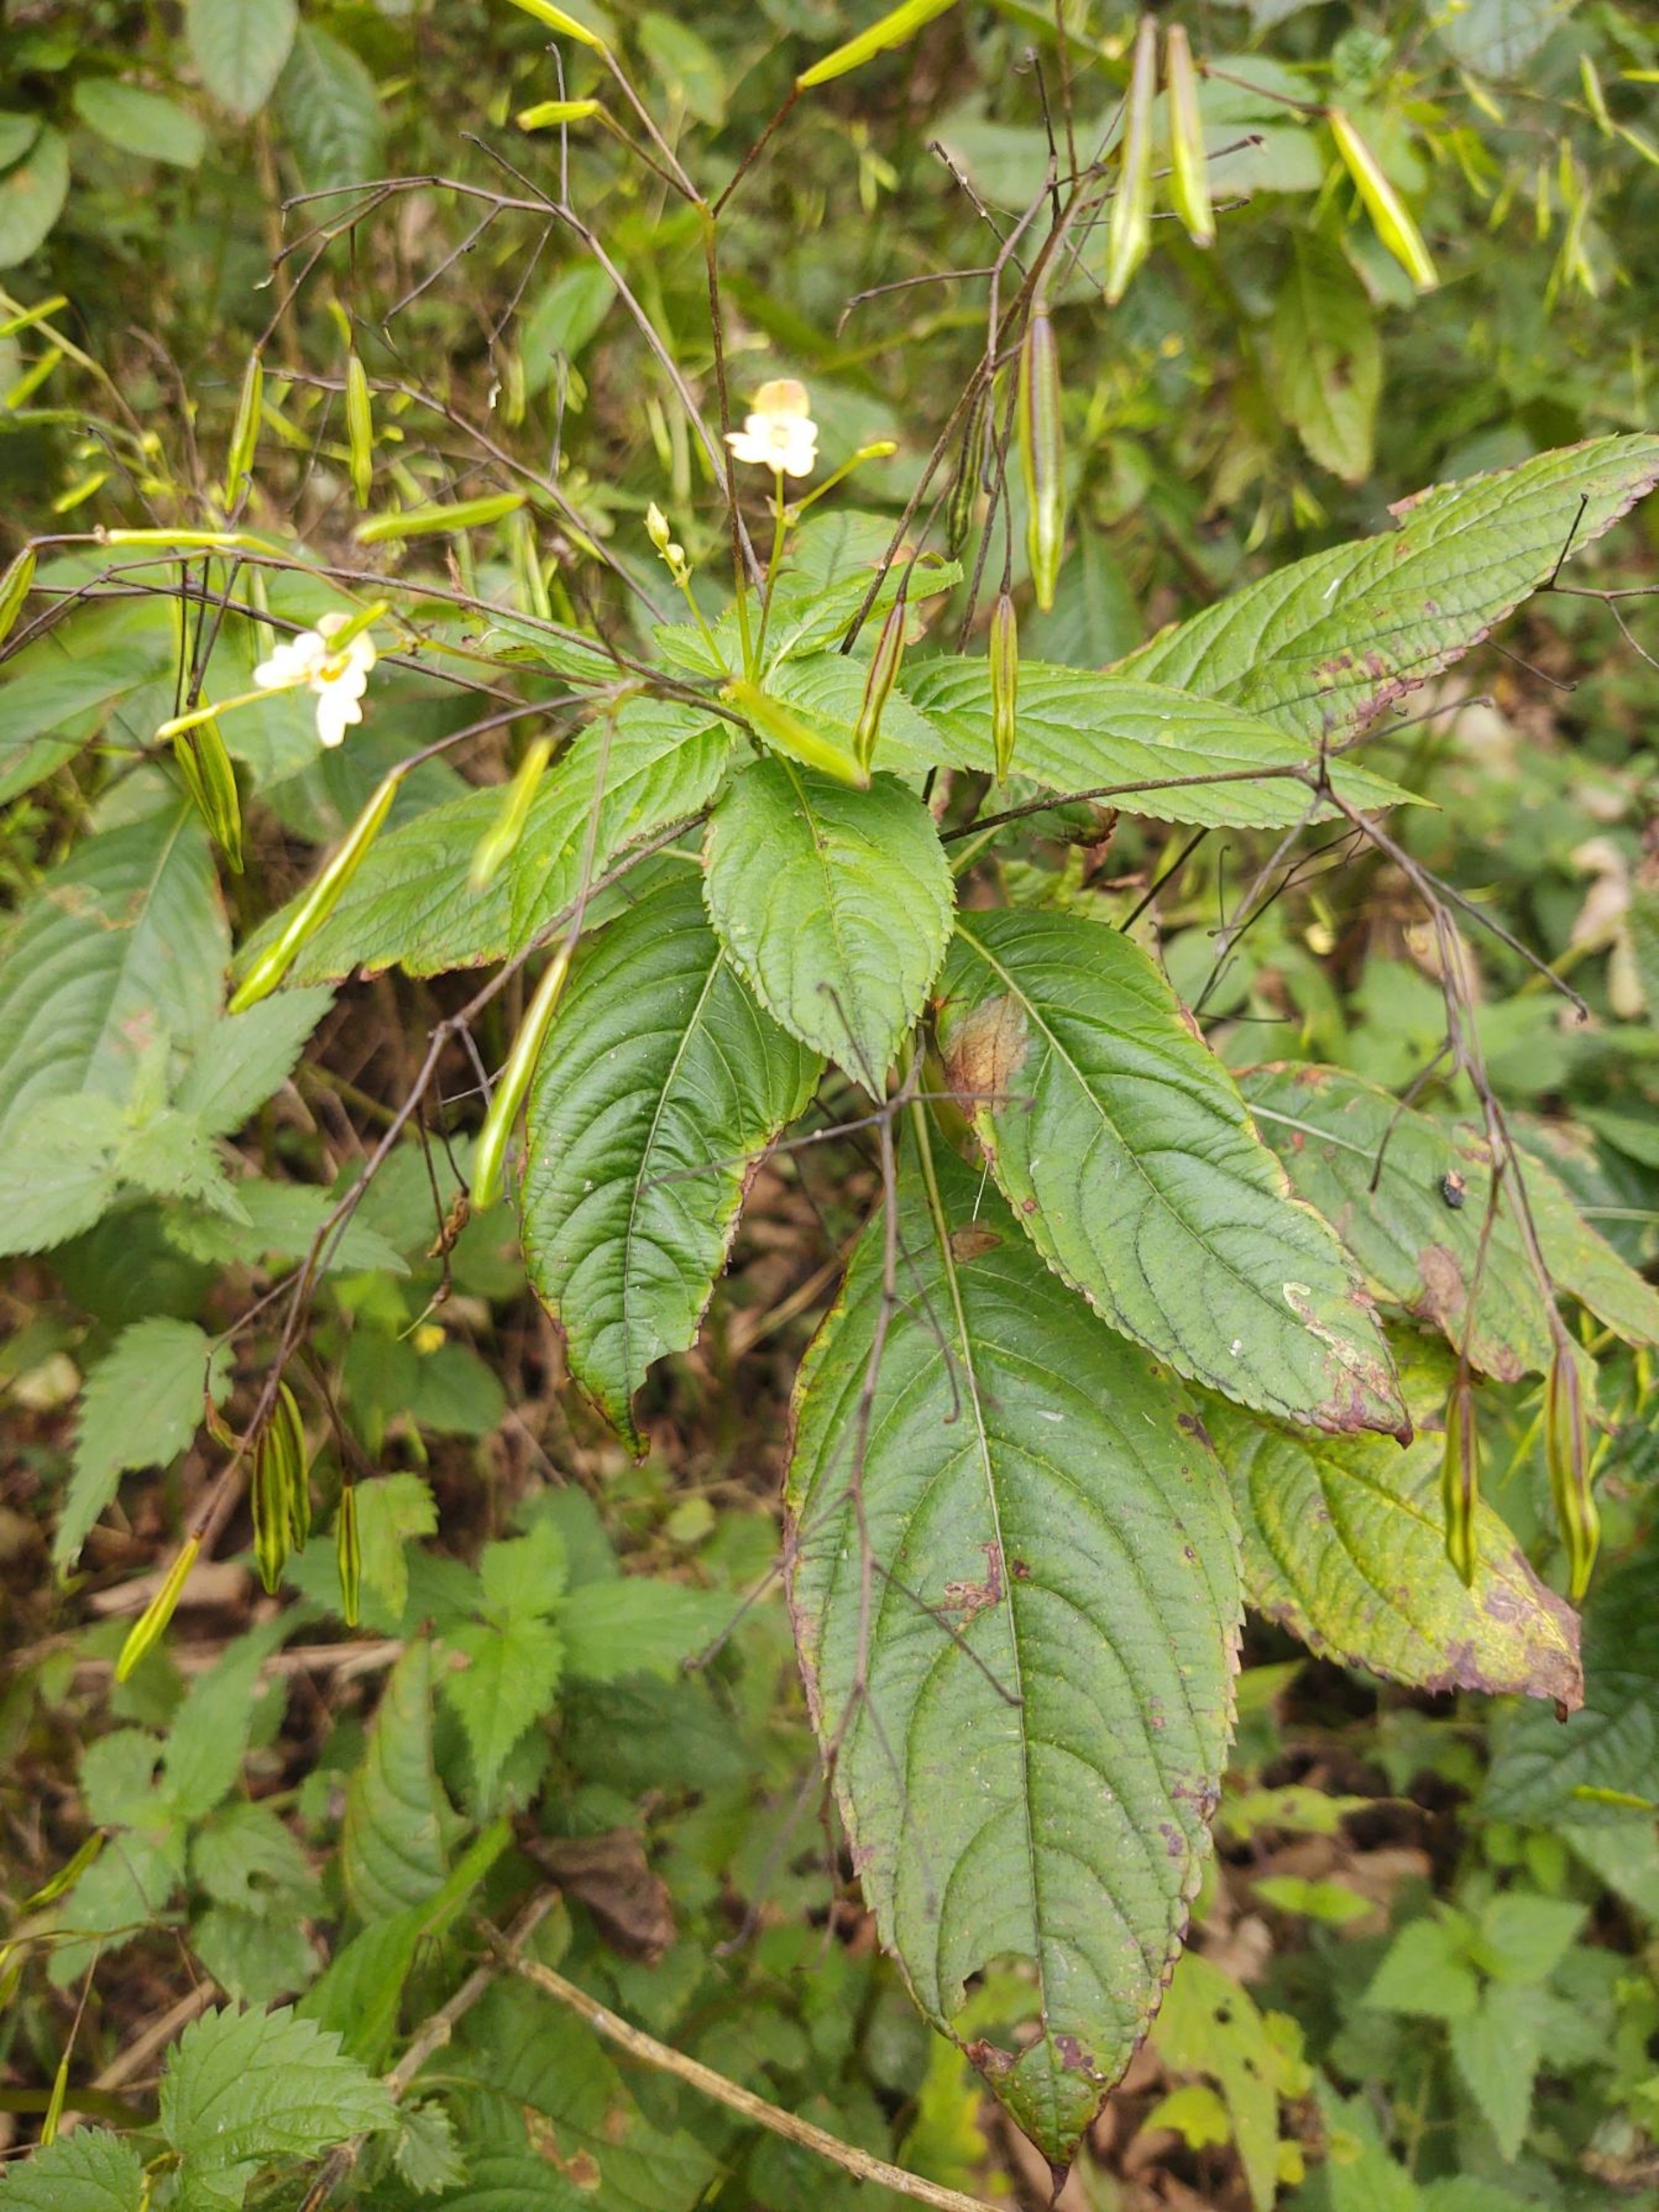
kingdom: Plantae
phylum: Tracheophyta
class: Magnoliopsida
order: Ericales
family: Balsaminaceae
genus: Impatiens
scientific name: Impatiens parviflora
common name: Småblomstret balsamin
